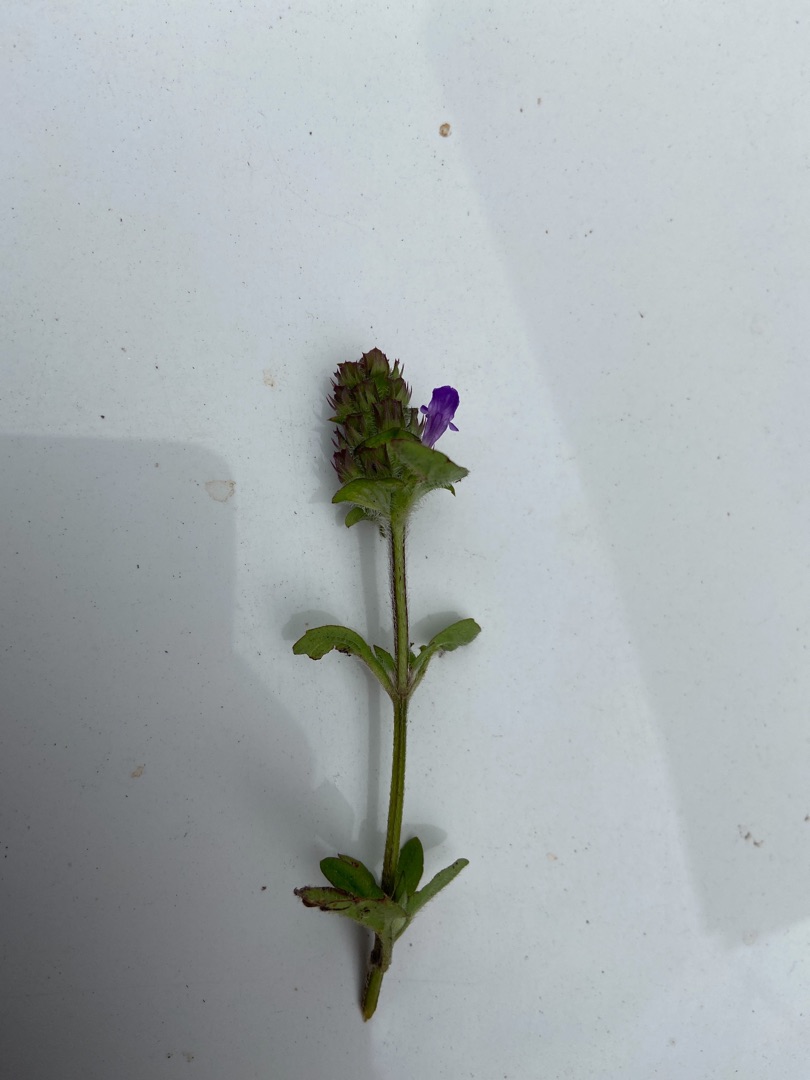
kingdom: Plantae
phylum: Tracheophyta
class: Magnoliopsida
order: Lamiales
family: Lamiaceae
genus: Prunella
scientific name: Prunella vulgaris
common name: Almindelig brunelle
